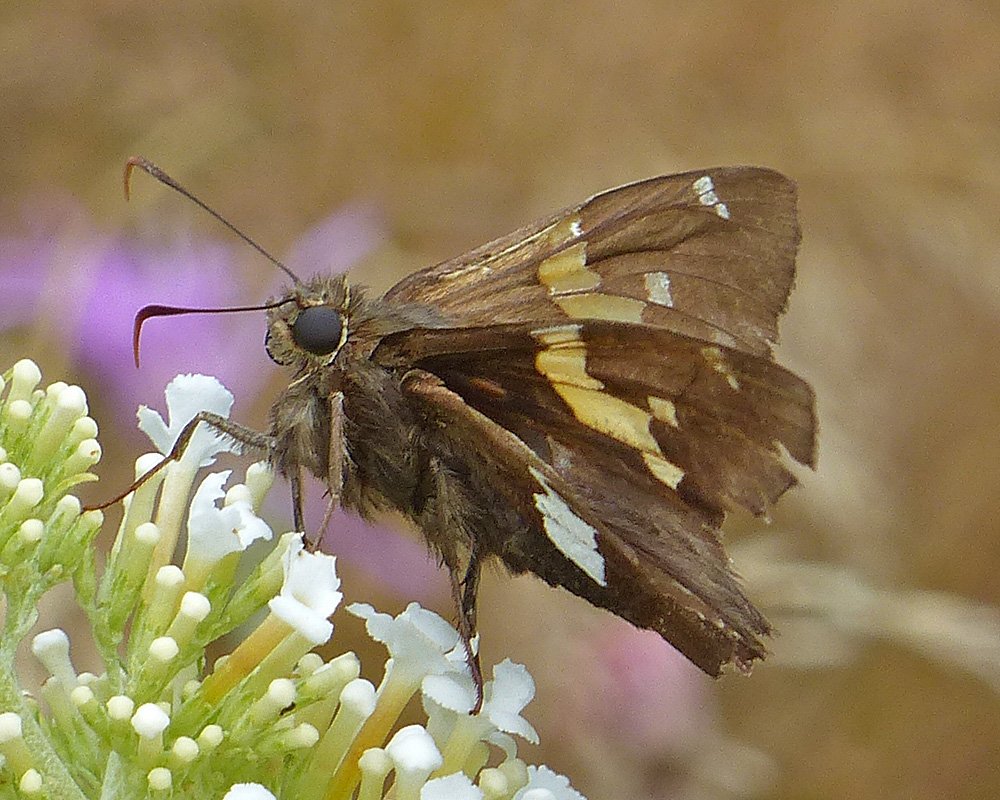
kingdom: Animalia
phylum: Arthropoda
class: Insecta
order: Lepidoptera
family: Hesperiidae
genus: Epargyreus
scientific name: Epargyreus clarus
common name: Silver-spotted Skipper
